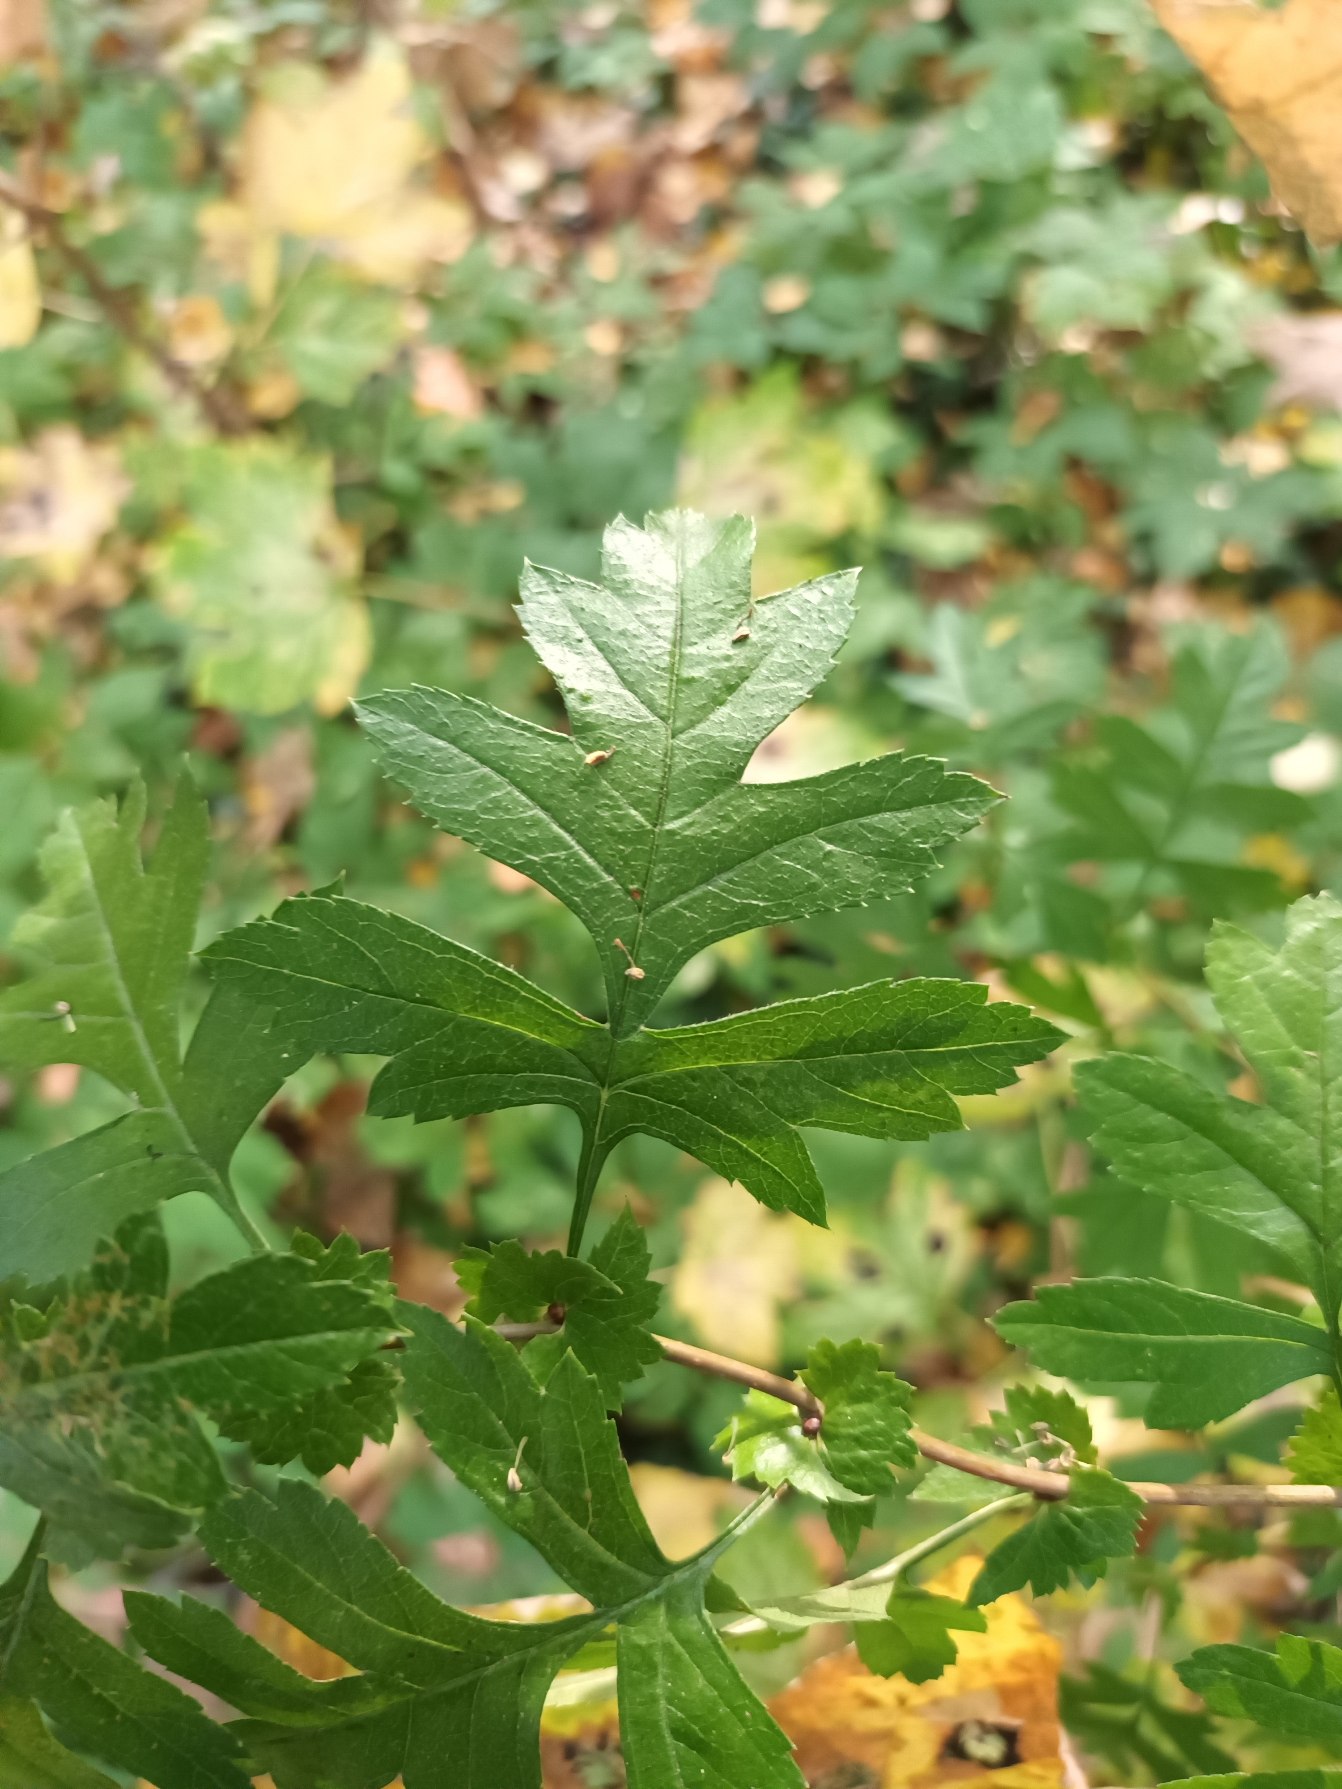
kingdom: Plantae
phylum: Tracheophyta
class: Magnoliopsida
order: Rosales
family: Rosaceae
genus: Crataegus
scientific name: Crataegus subsphaerica
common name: Engriflet hvidtjørn × koral-hvidtjørn
